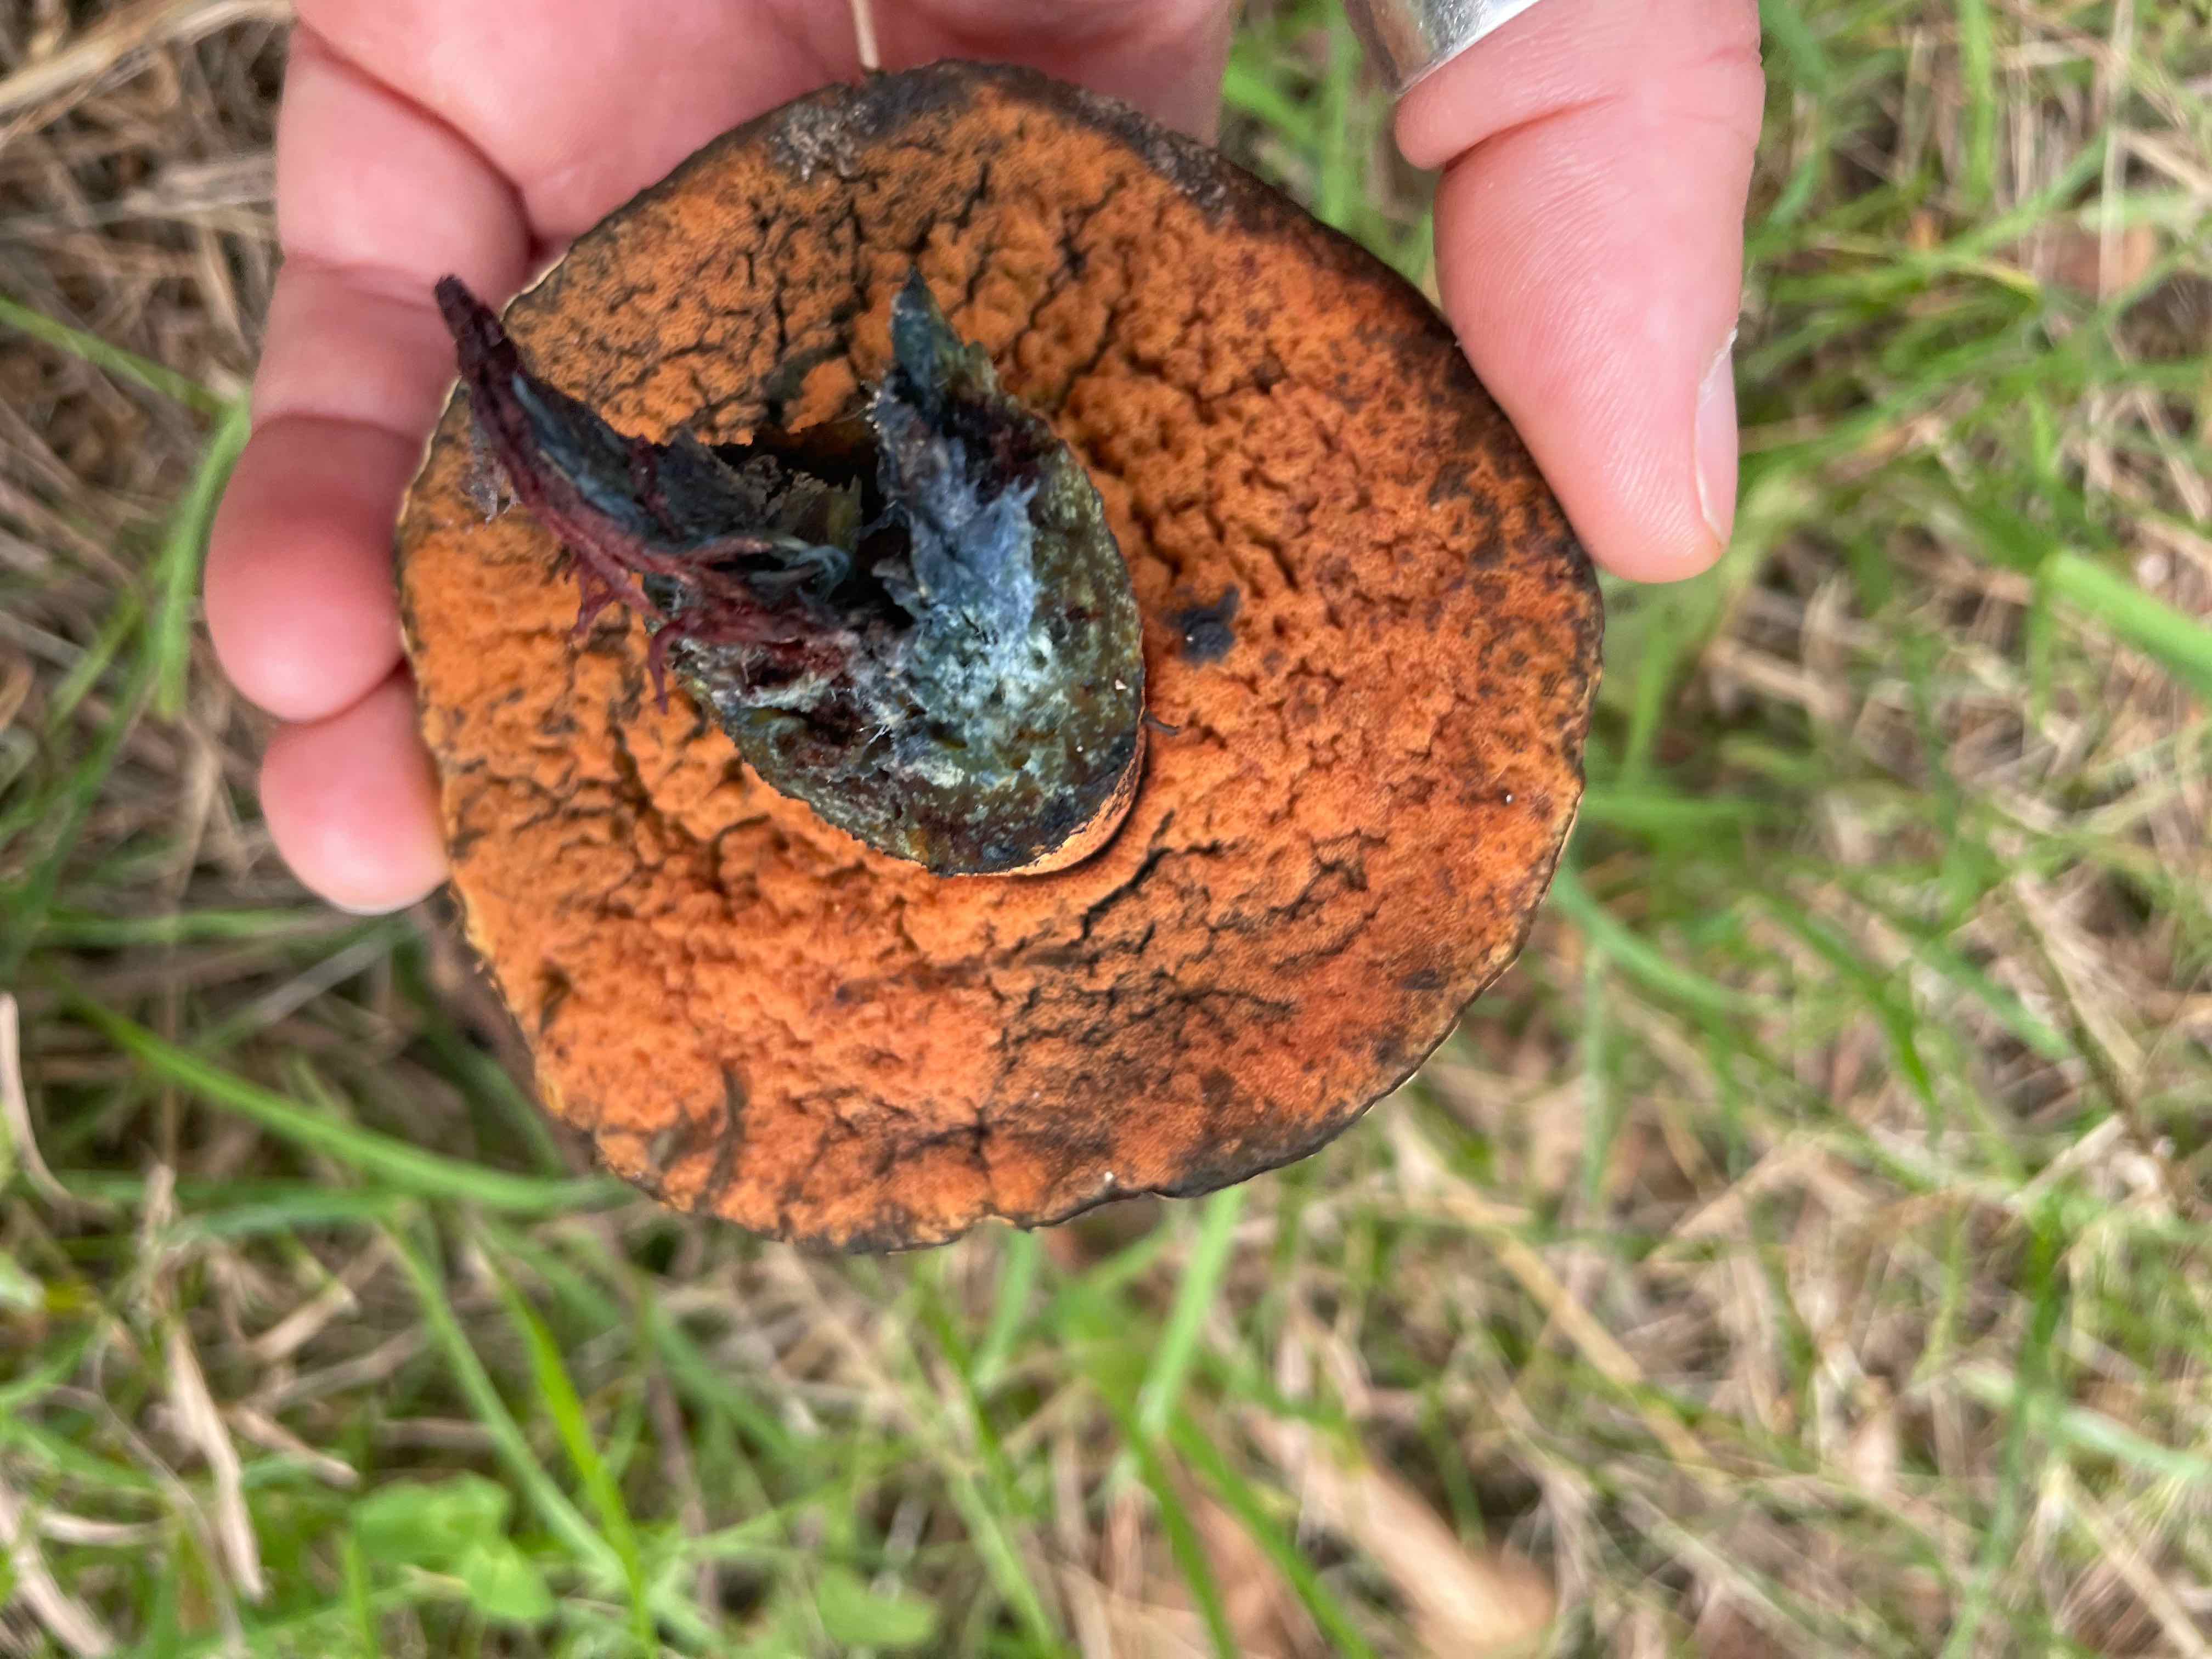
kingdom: Fungi
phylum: Basidiomycota
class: Agaricomycetes
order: Boletales
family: Boletaceae
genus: Suillellus
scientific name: Suillellus luridus
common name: netstokket indigorørhat
